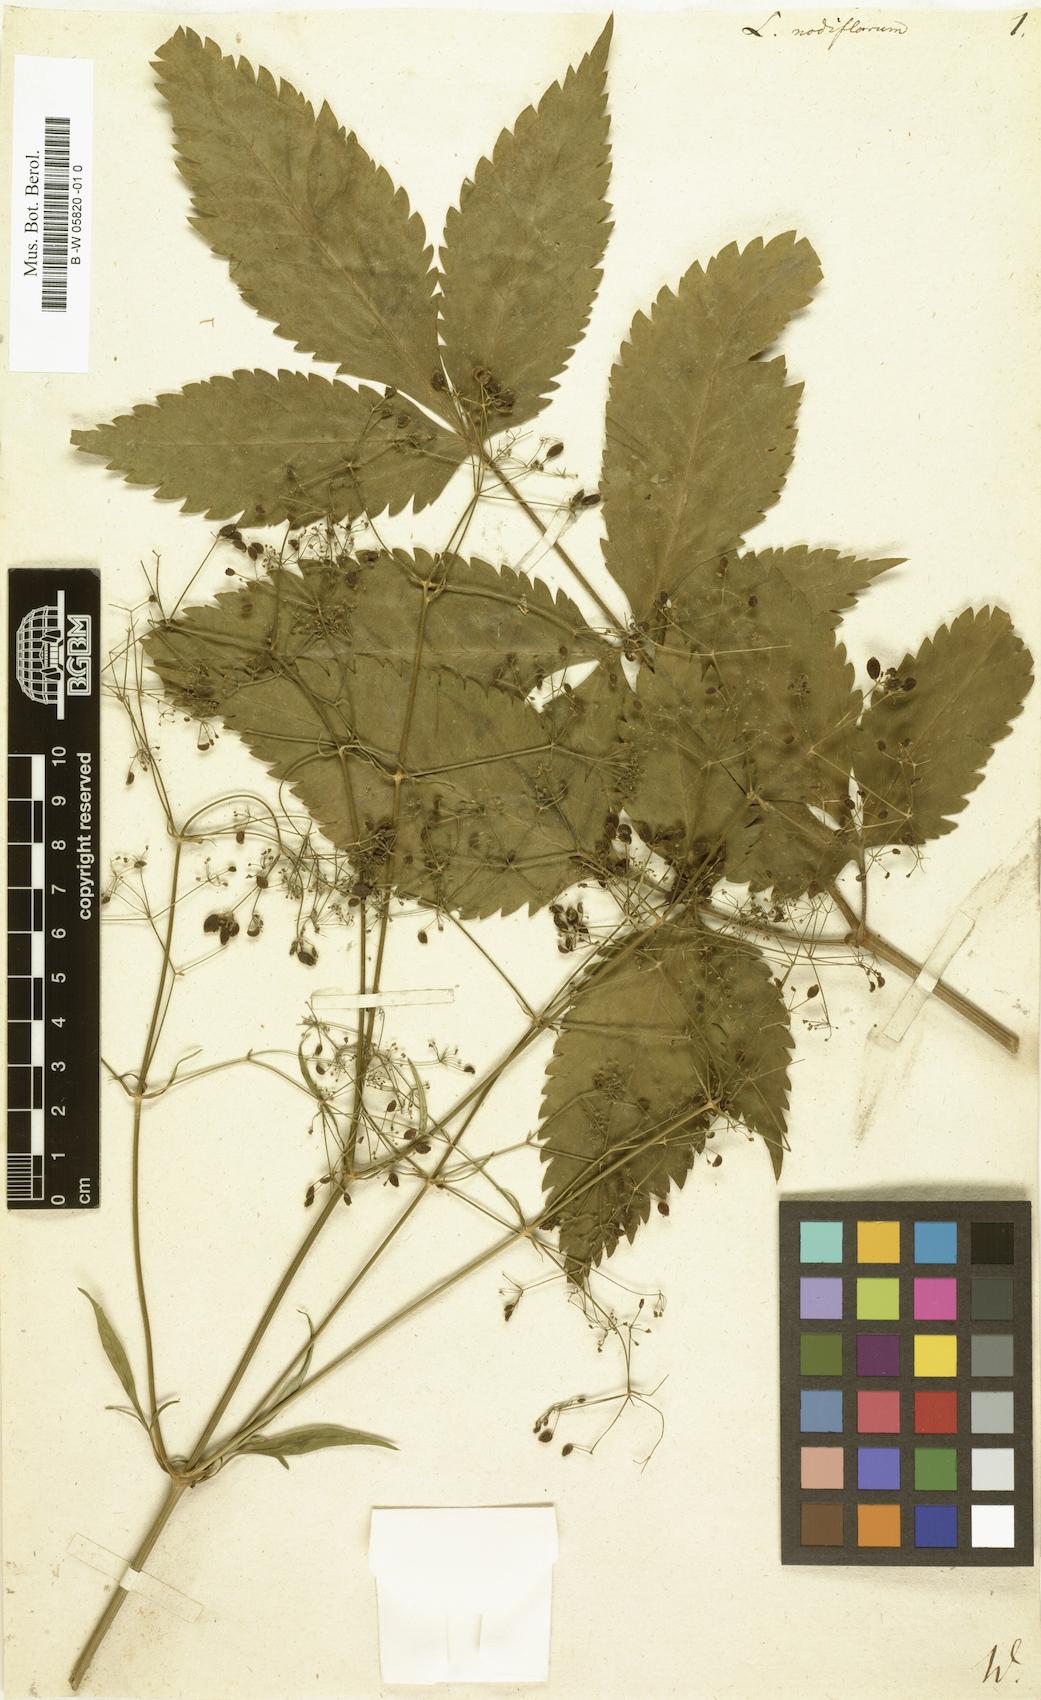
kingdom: Plantae
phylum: Tracheophyta
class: Magnoliopsida
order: Apiales
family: Apiaceae
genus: Trochiscanthes
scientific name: Trochiscanthes nodiflora
